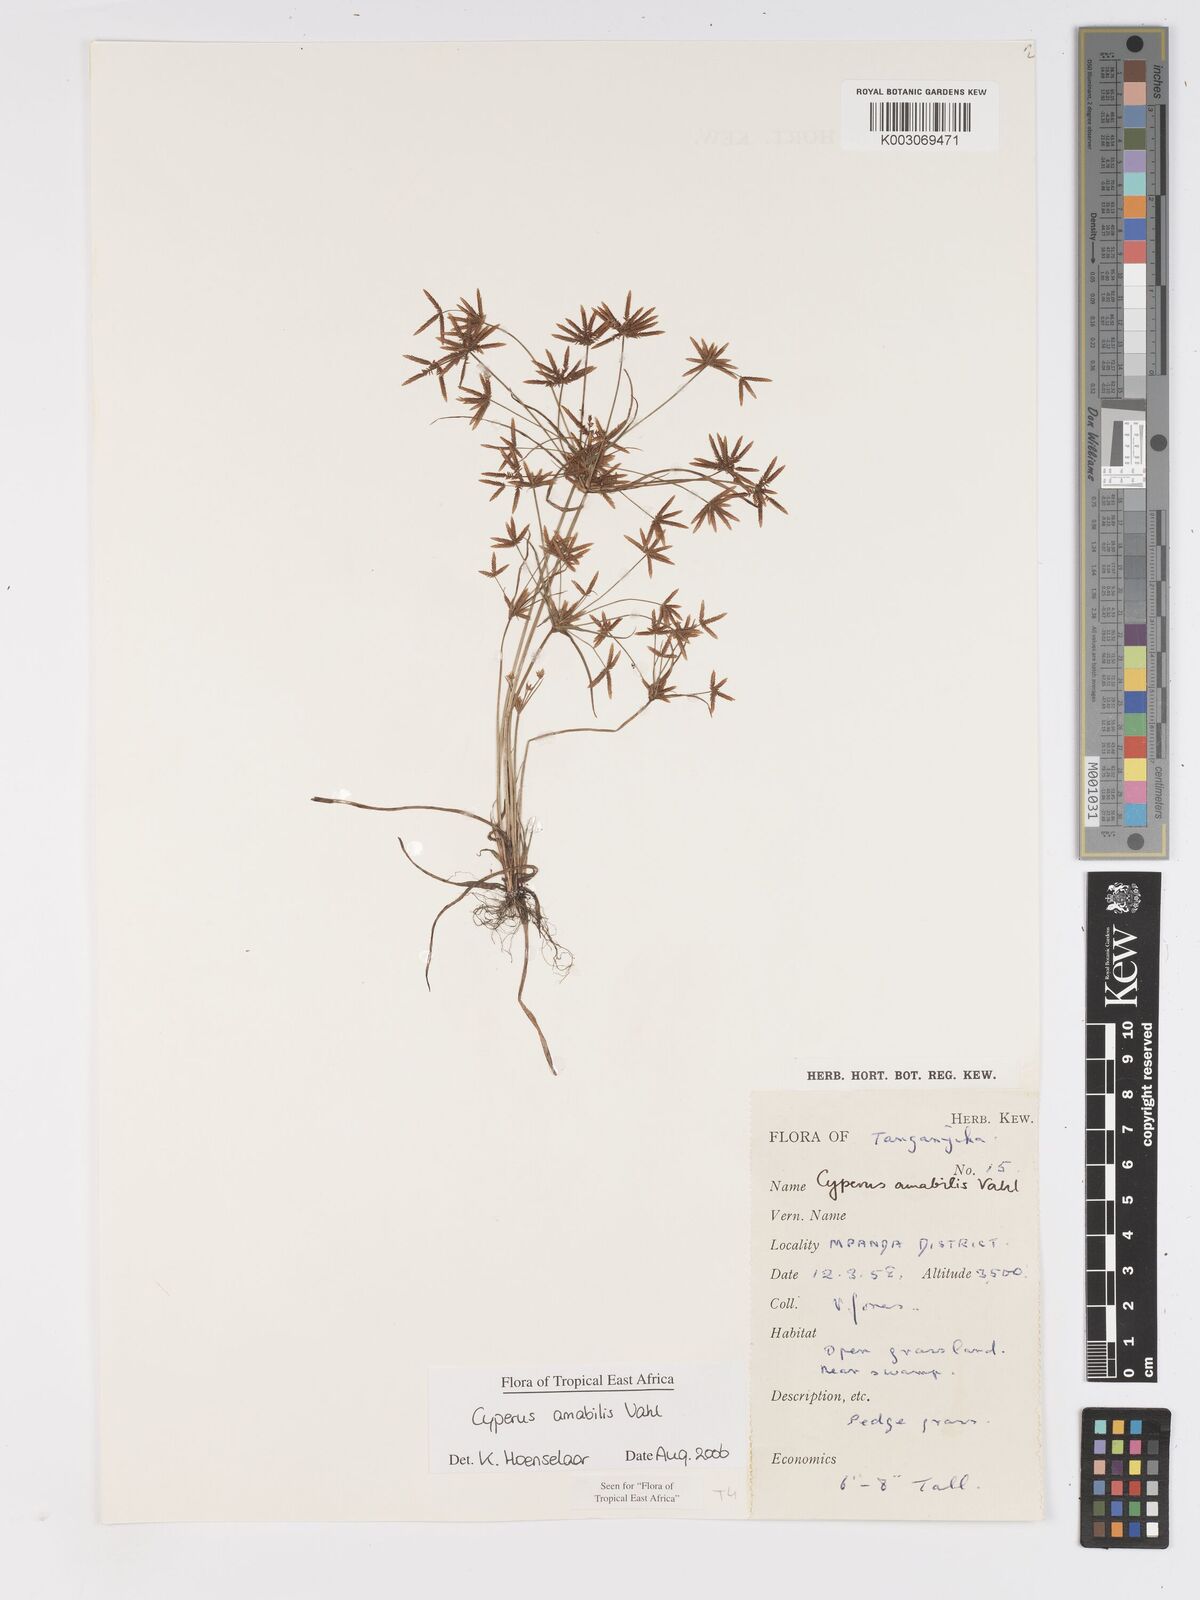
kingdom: Plantae
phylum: Tracheophyta
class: Liliopsida
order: Poales
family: Cyperaceae
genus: Cyperus
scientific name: Cyperus amabilis
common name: Foothill flat sedge
